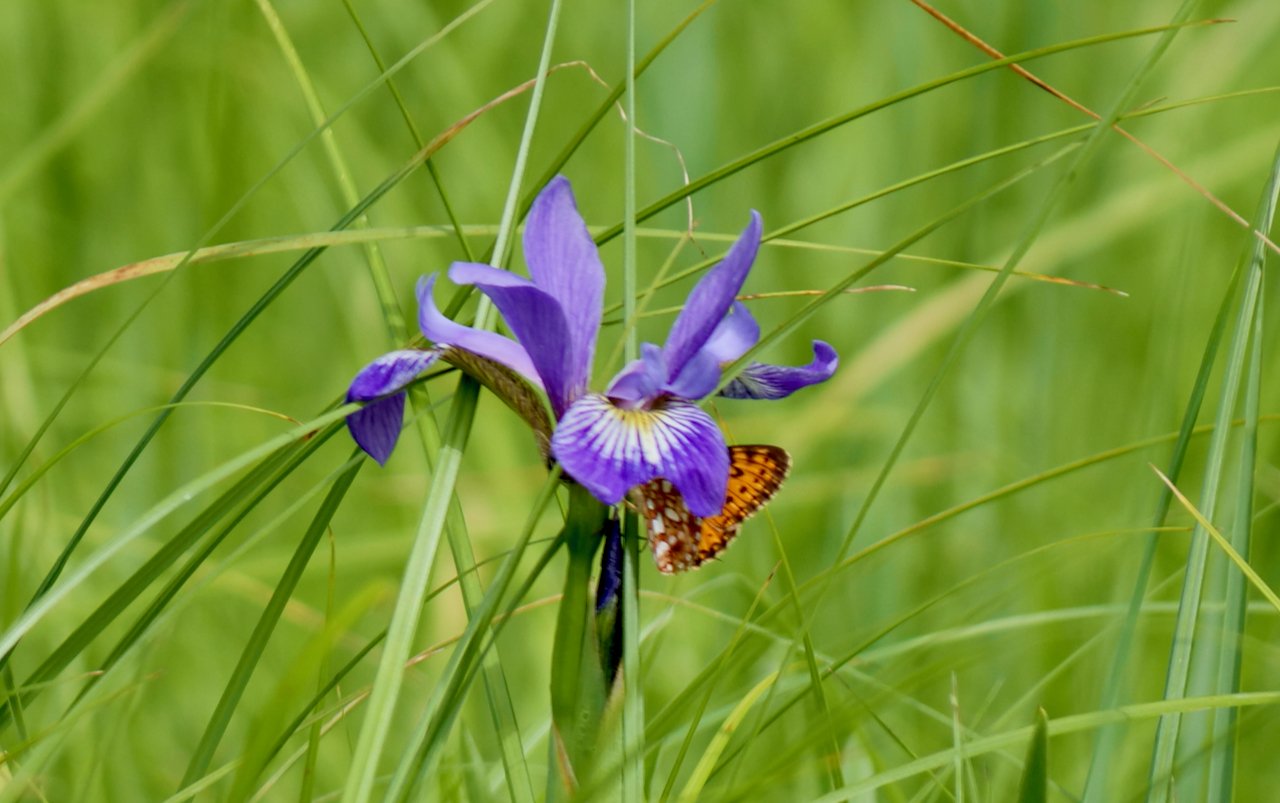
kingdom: Animalia
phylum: Arthropoda
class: Insecta
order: Lepidoptera
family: Nymphalidae
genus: Boloria
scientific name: Boloria selene
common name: Silver-bordered Fritillary
